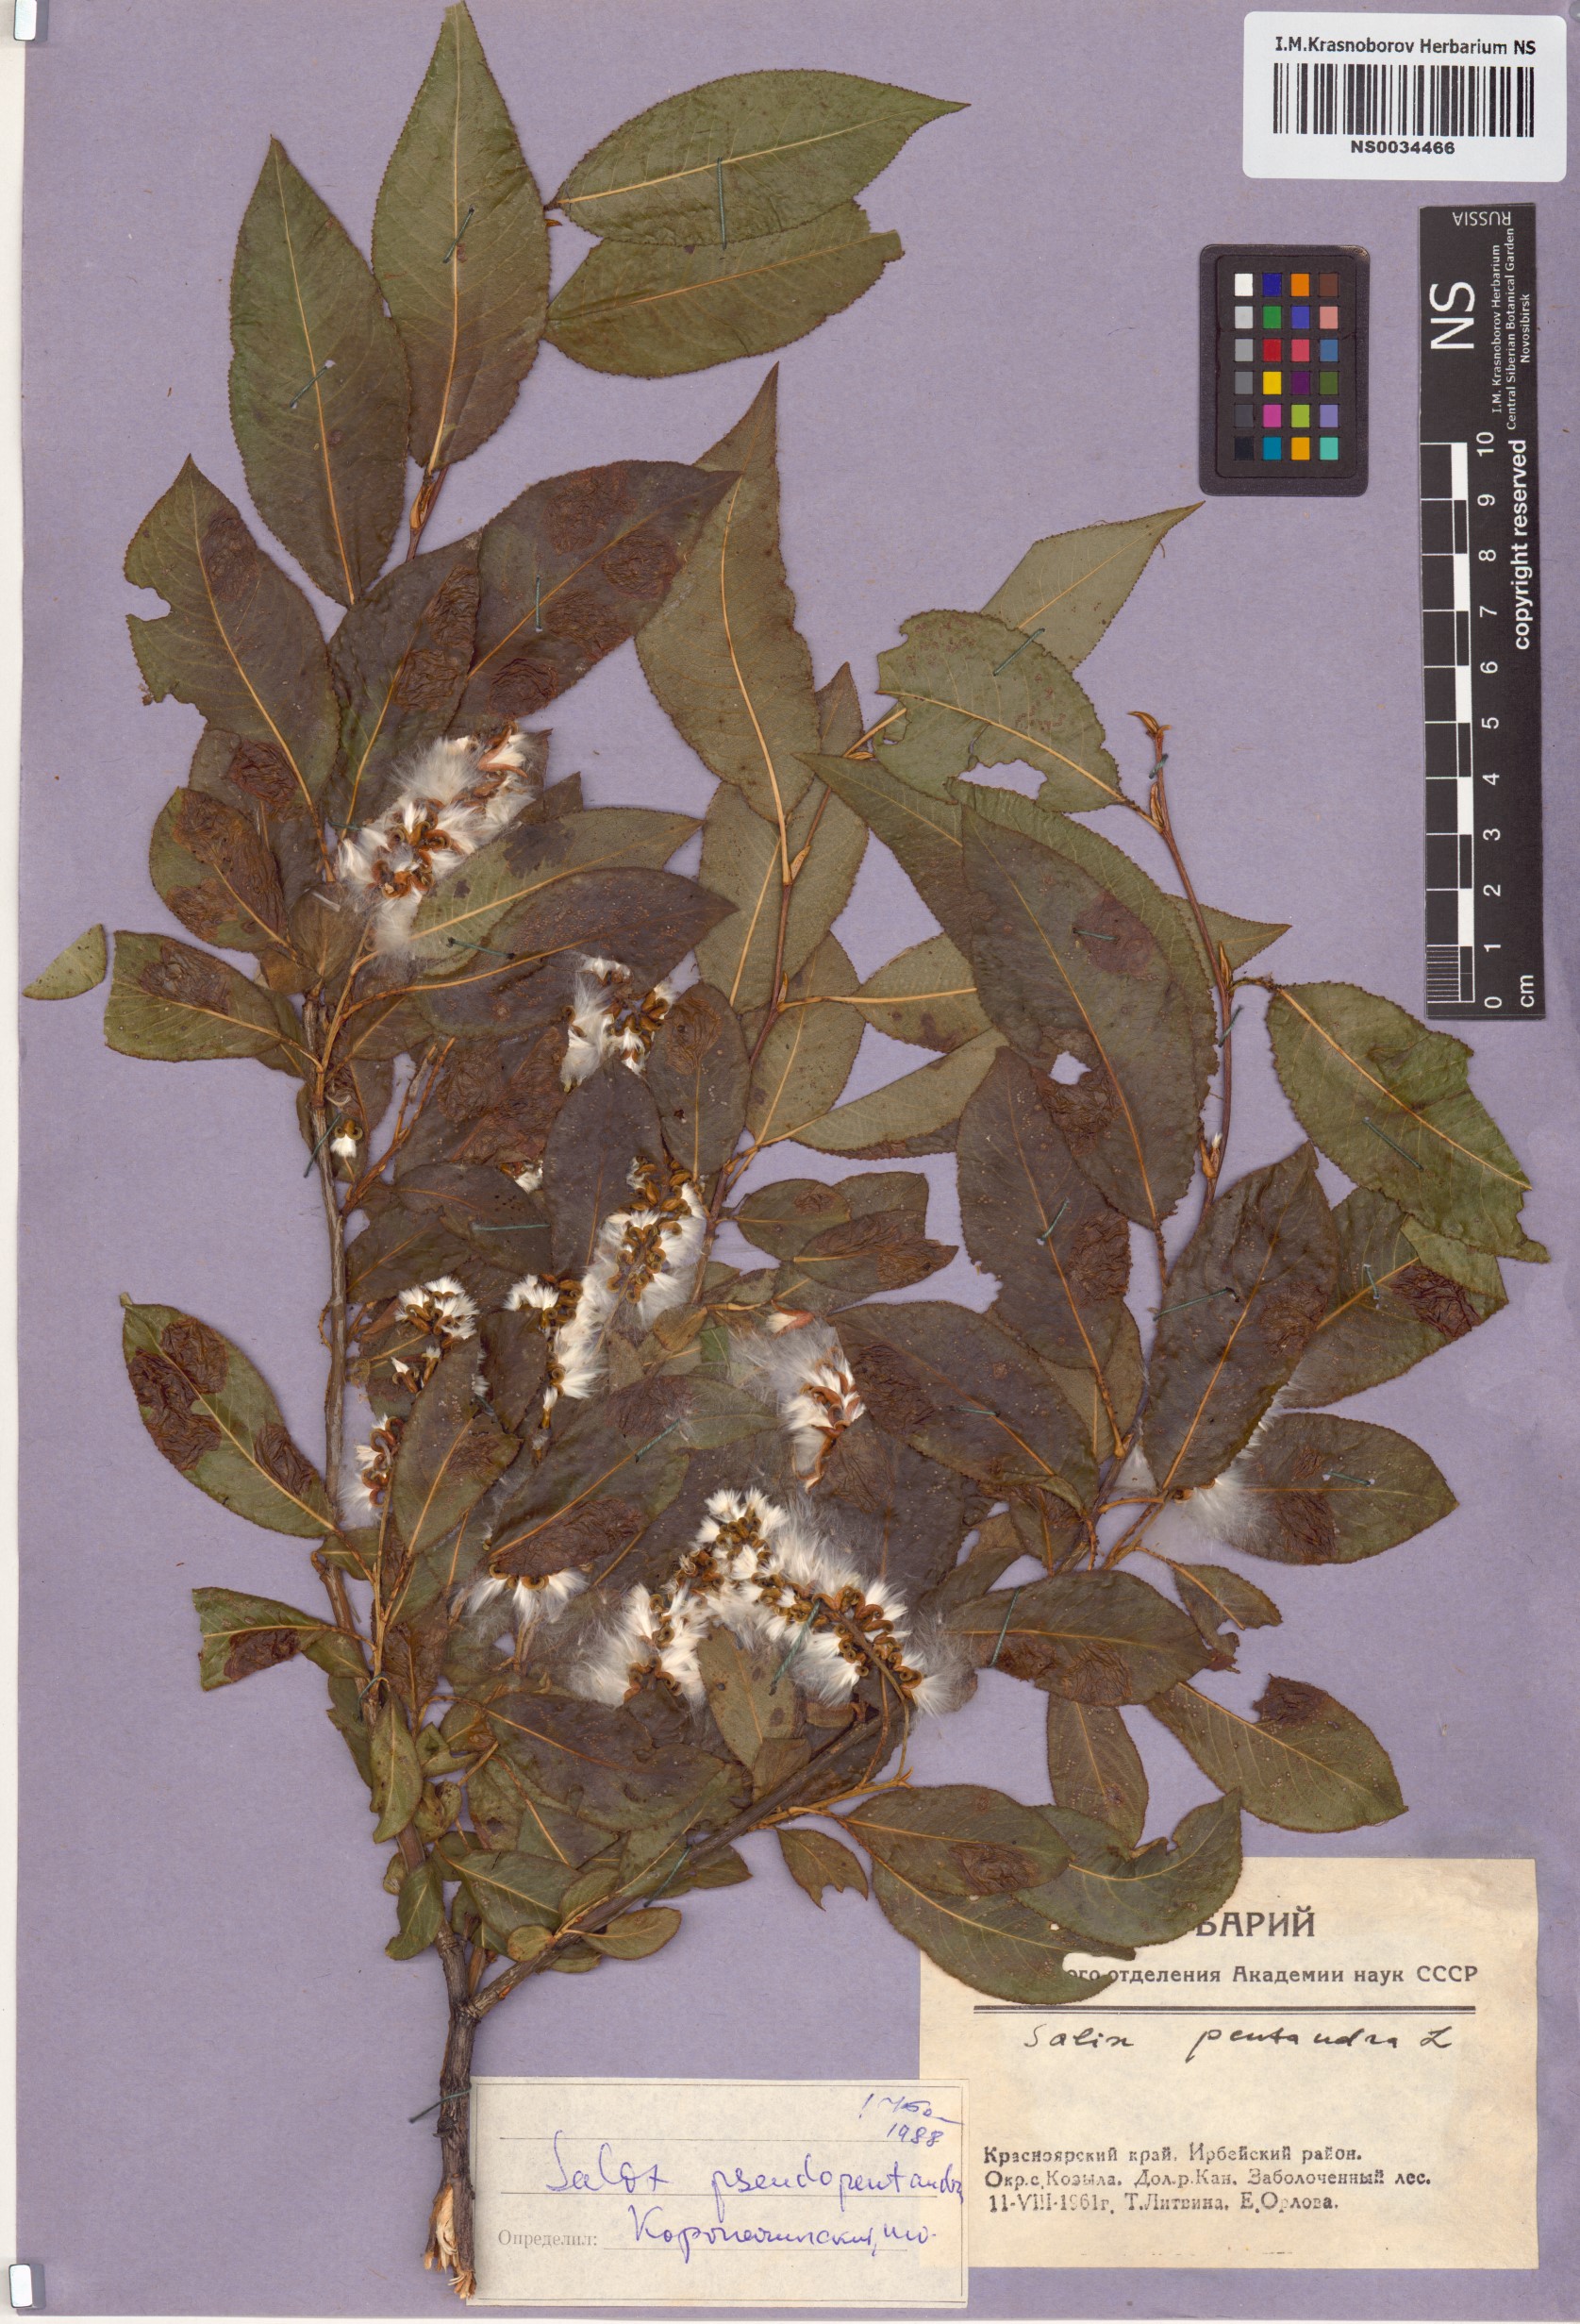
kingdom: Plantae
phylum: Tracheophyta
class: Magnoliopsida
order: Malpighiales
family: Salicaceae
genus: Salix
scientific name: Salix pseudopentandra
